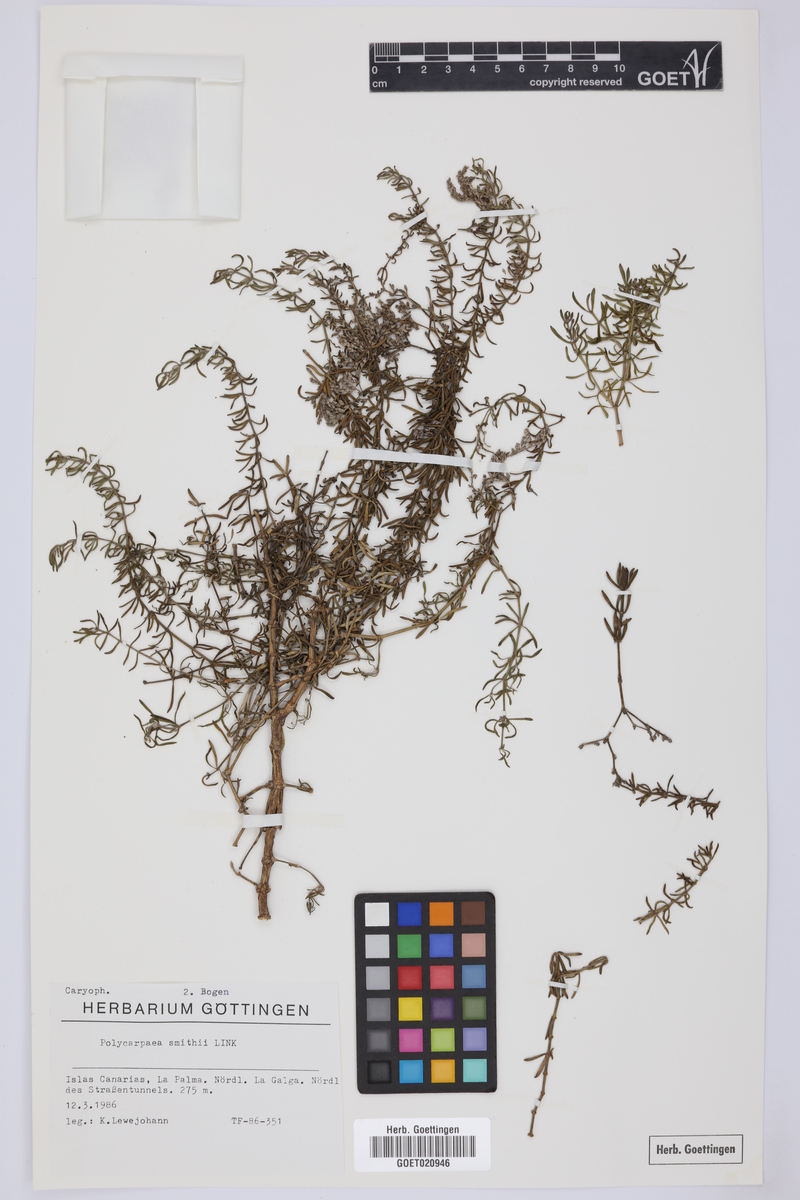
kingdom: Plantae
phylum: Tracheophyta
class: Magnoliopsida
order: Caryophyllales
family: Caryophyllaceae
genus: Polycarpaea
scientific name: Polycarpaea smithii
